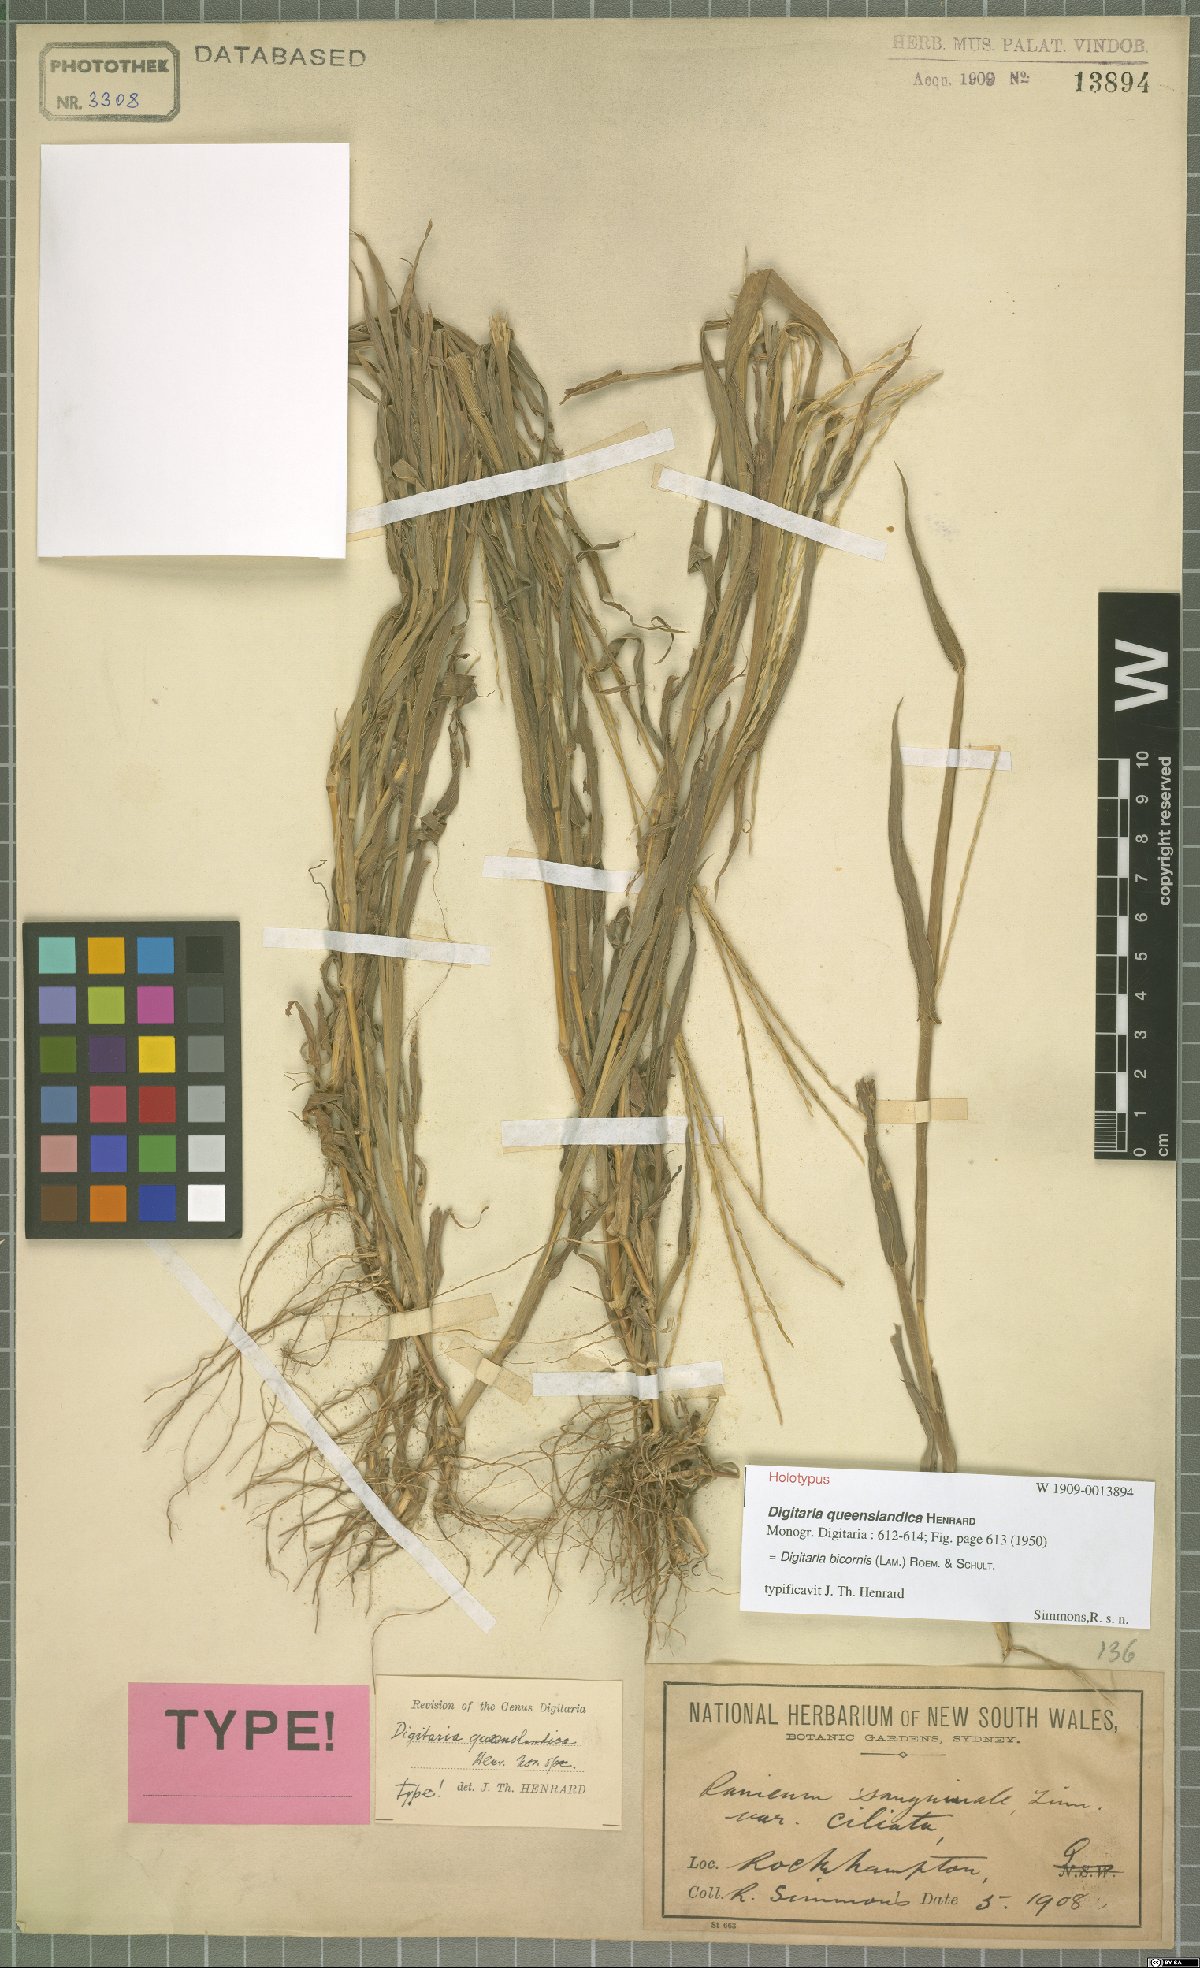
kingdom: Plantae
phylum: Tracheophyta
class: Liliopsida
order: Poales
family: Poaceae
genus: Digitaria
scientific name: Digitaria bicornis
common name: Asian crabgrass
